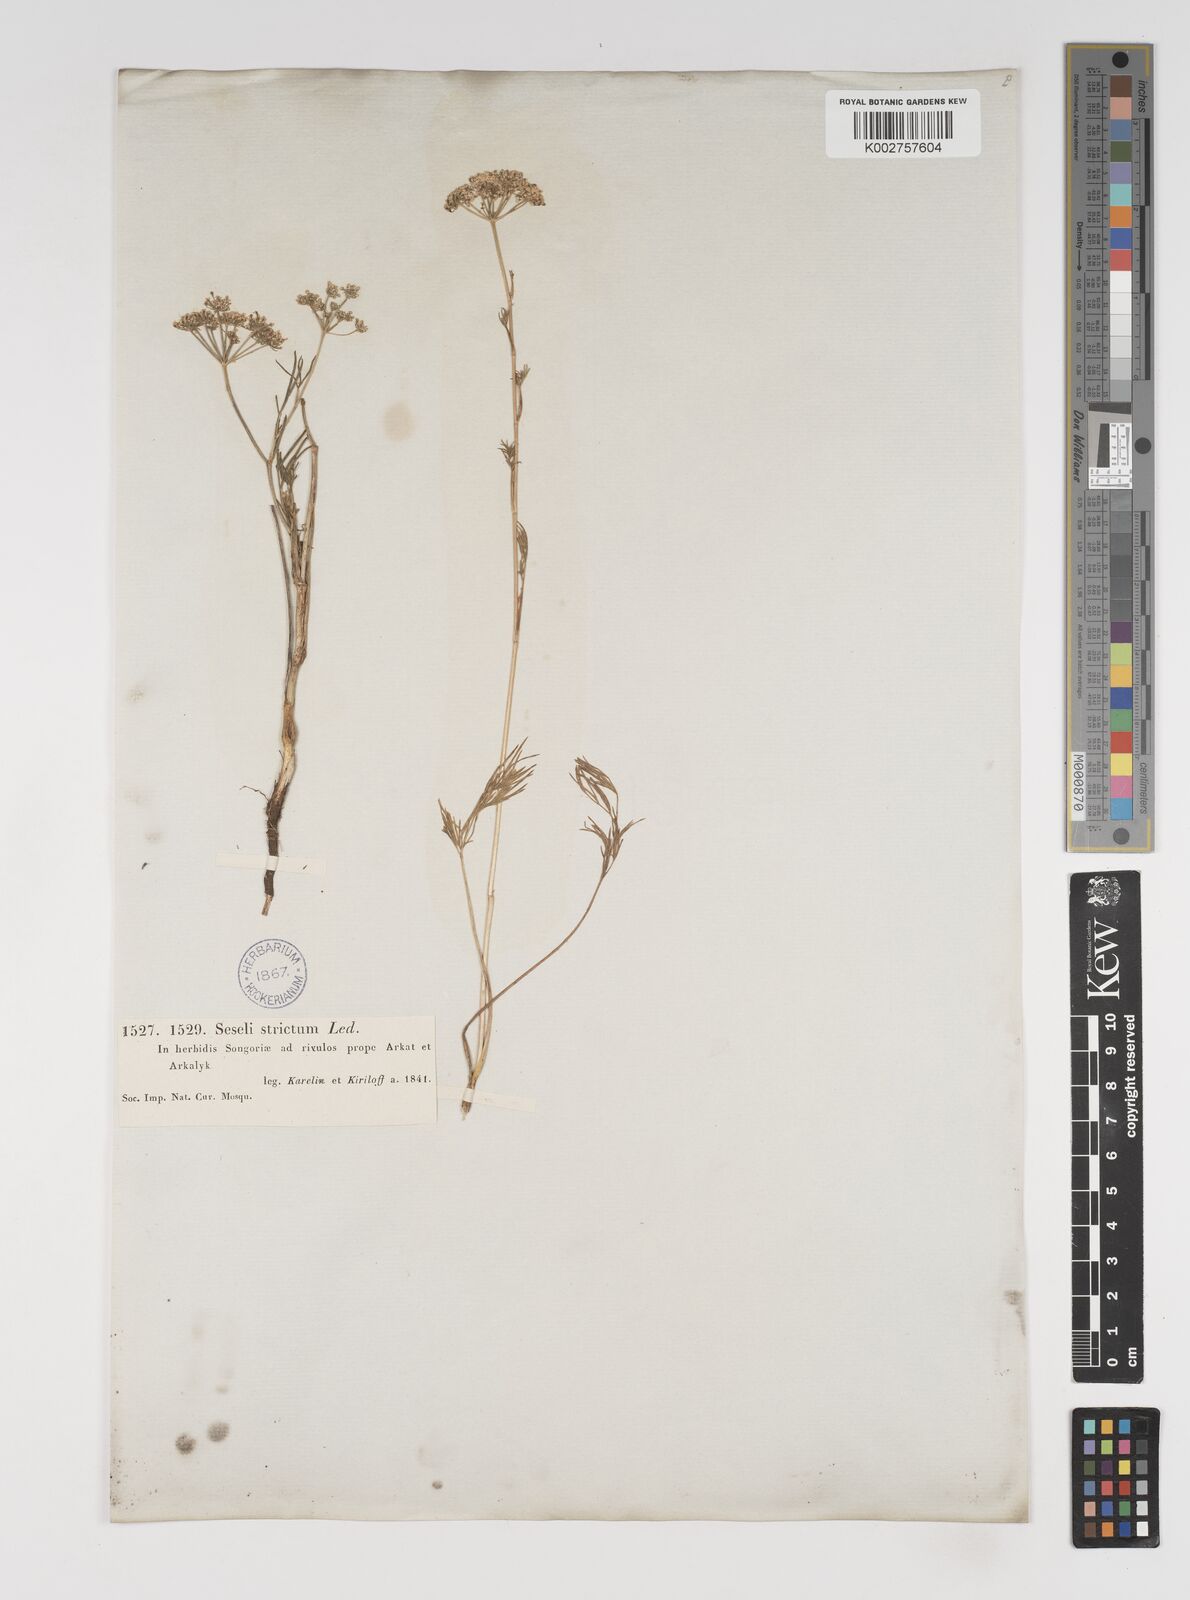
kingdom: Plantae
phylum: Tracheophyta
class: Magnoliopsida
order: Apiales
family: Apiaceae
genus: Seseli
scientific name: Seseli strictum
